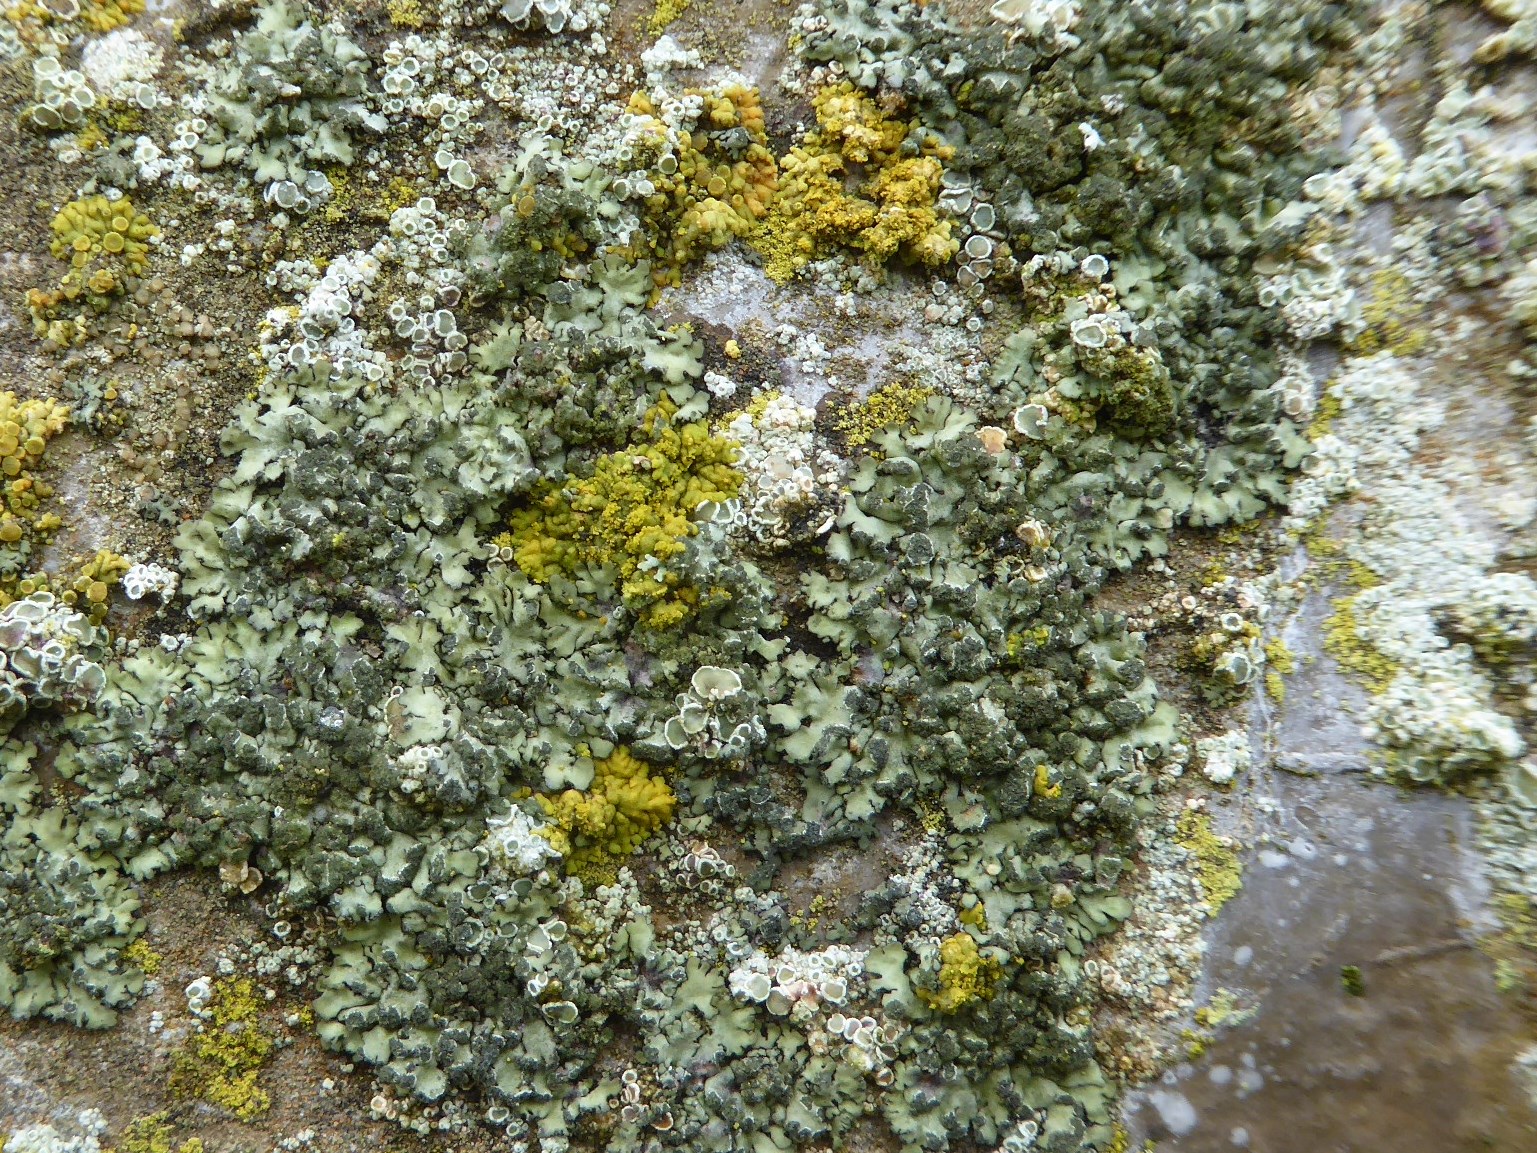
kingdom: Fungi
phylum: Ascomycota
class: Lecanoromycetes
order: Caliciales
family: Physciaceae
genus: Phaeophyscia
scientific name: Phaeophyscia orbicularis
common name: grågrøn rosetlav
